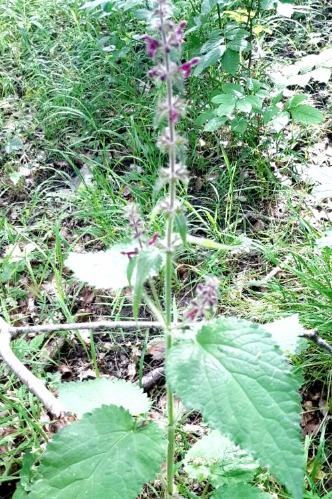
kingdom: Plantae
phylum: Tracheophyta
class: Magnoliopsida
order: Lamiales
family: Lamiaceae
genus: Stachys
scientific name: Stachys sylvatica
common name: Skov-galtetand
